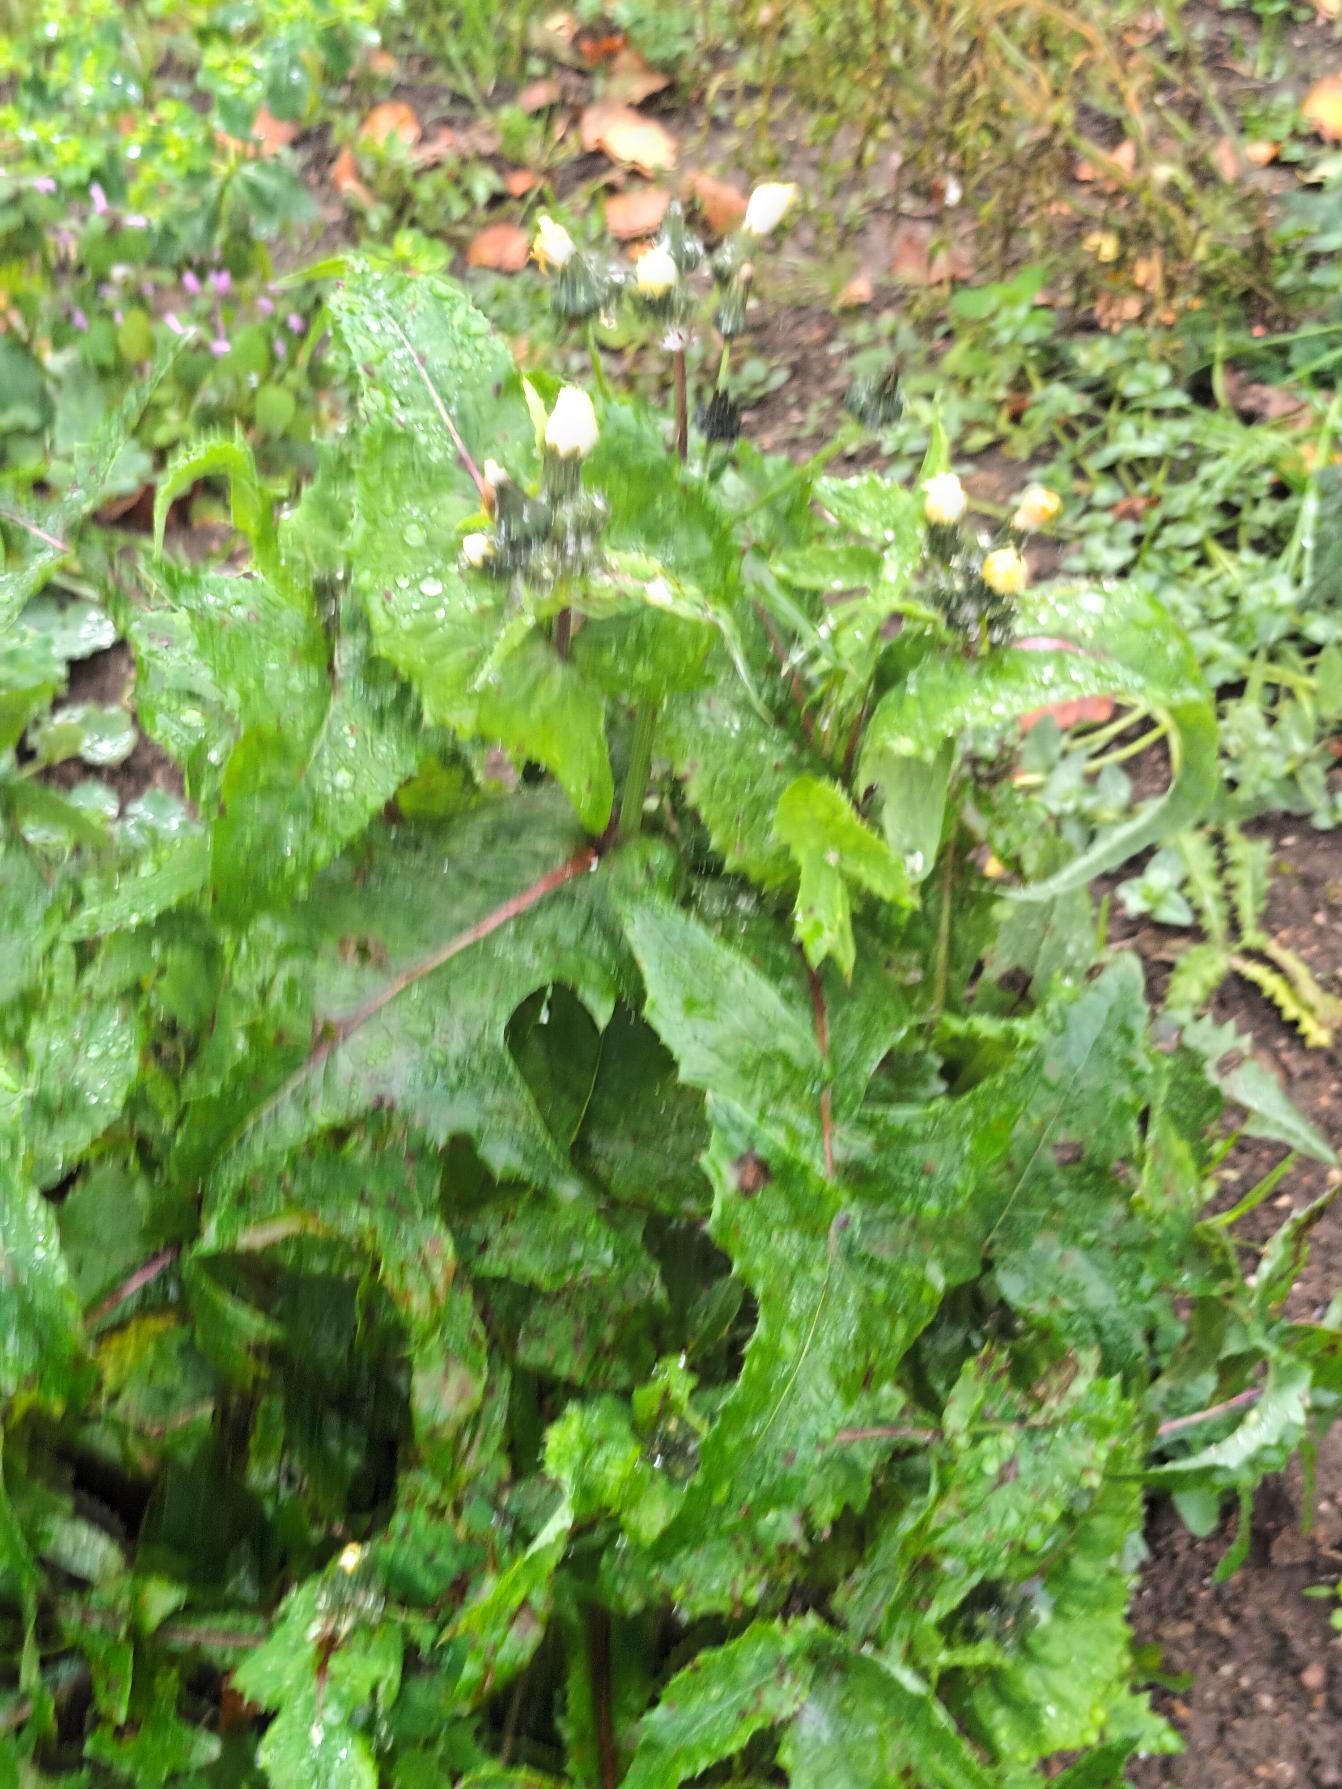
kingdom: Plantae
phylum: Tracheophyta
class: Magnoliopsida
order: Asterales
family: Asteraceae
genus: Sonchus
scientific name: Sonchus oleraceus
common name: Almindelig svinemælk
